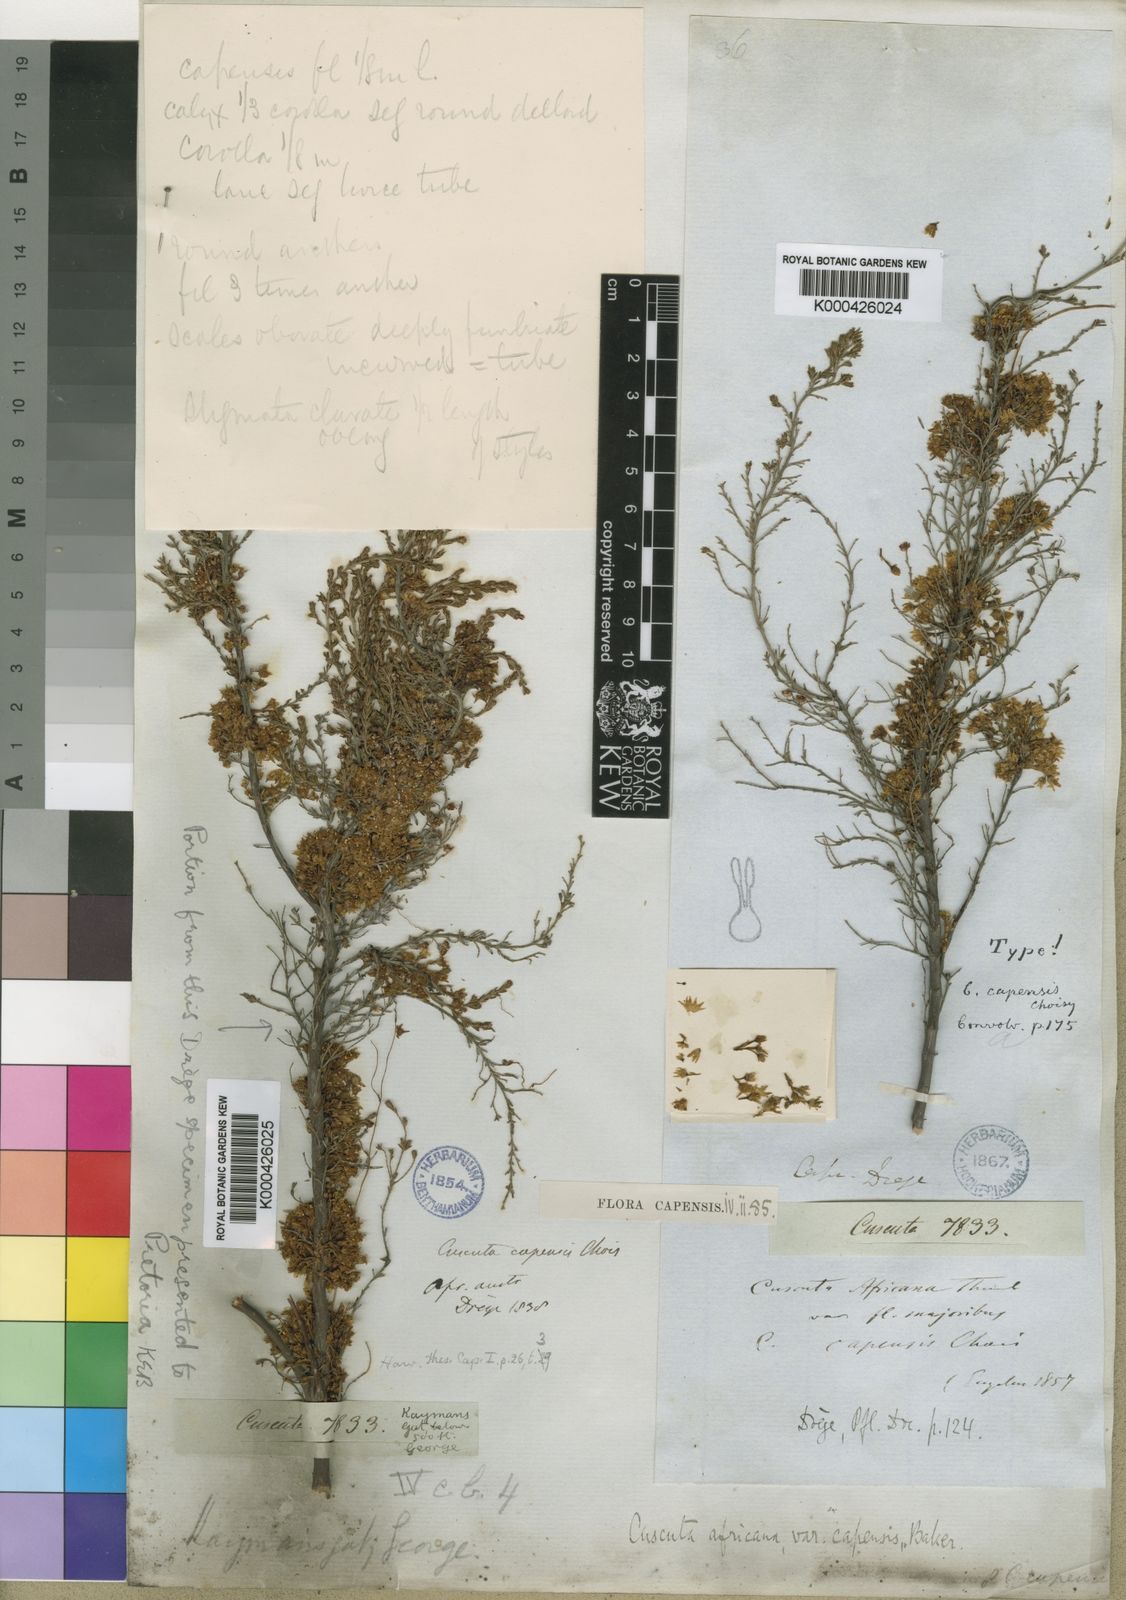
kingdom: Plantae
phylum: Tracheophyta
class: Magnoliopsida
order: Solanales
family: Convolvulaceae
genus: Cuscuta
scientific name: Cuscuta
